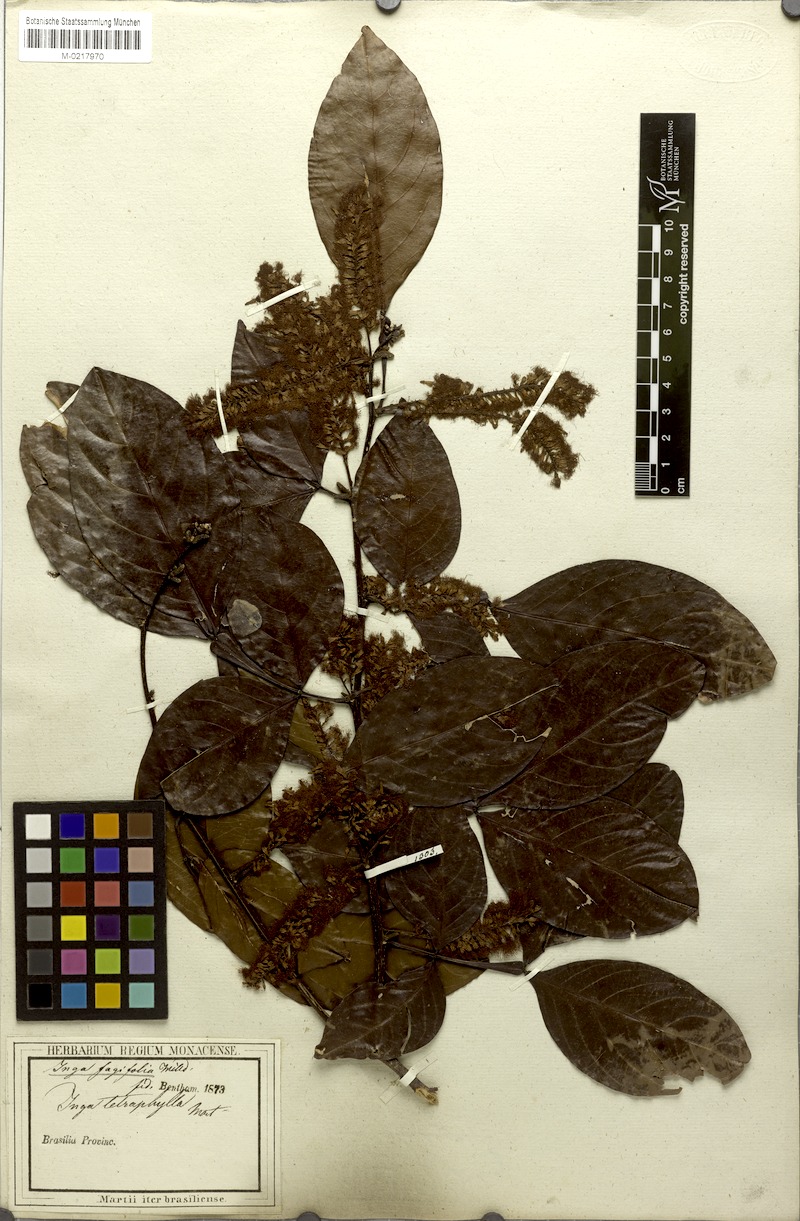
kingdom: Plantae
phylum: Tracheophyta
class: Magnoliopsida
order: Fabales
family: Fabaceae
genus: Inga
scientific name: Inga laurina
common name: Red wood
